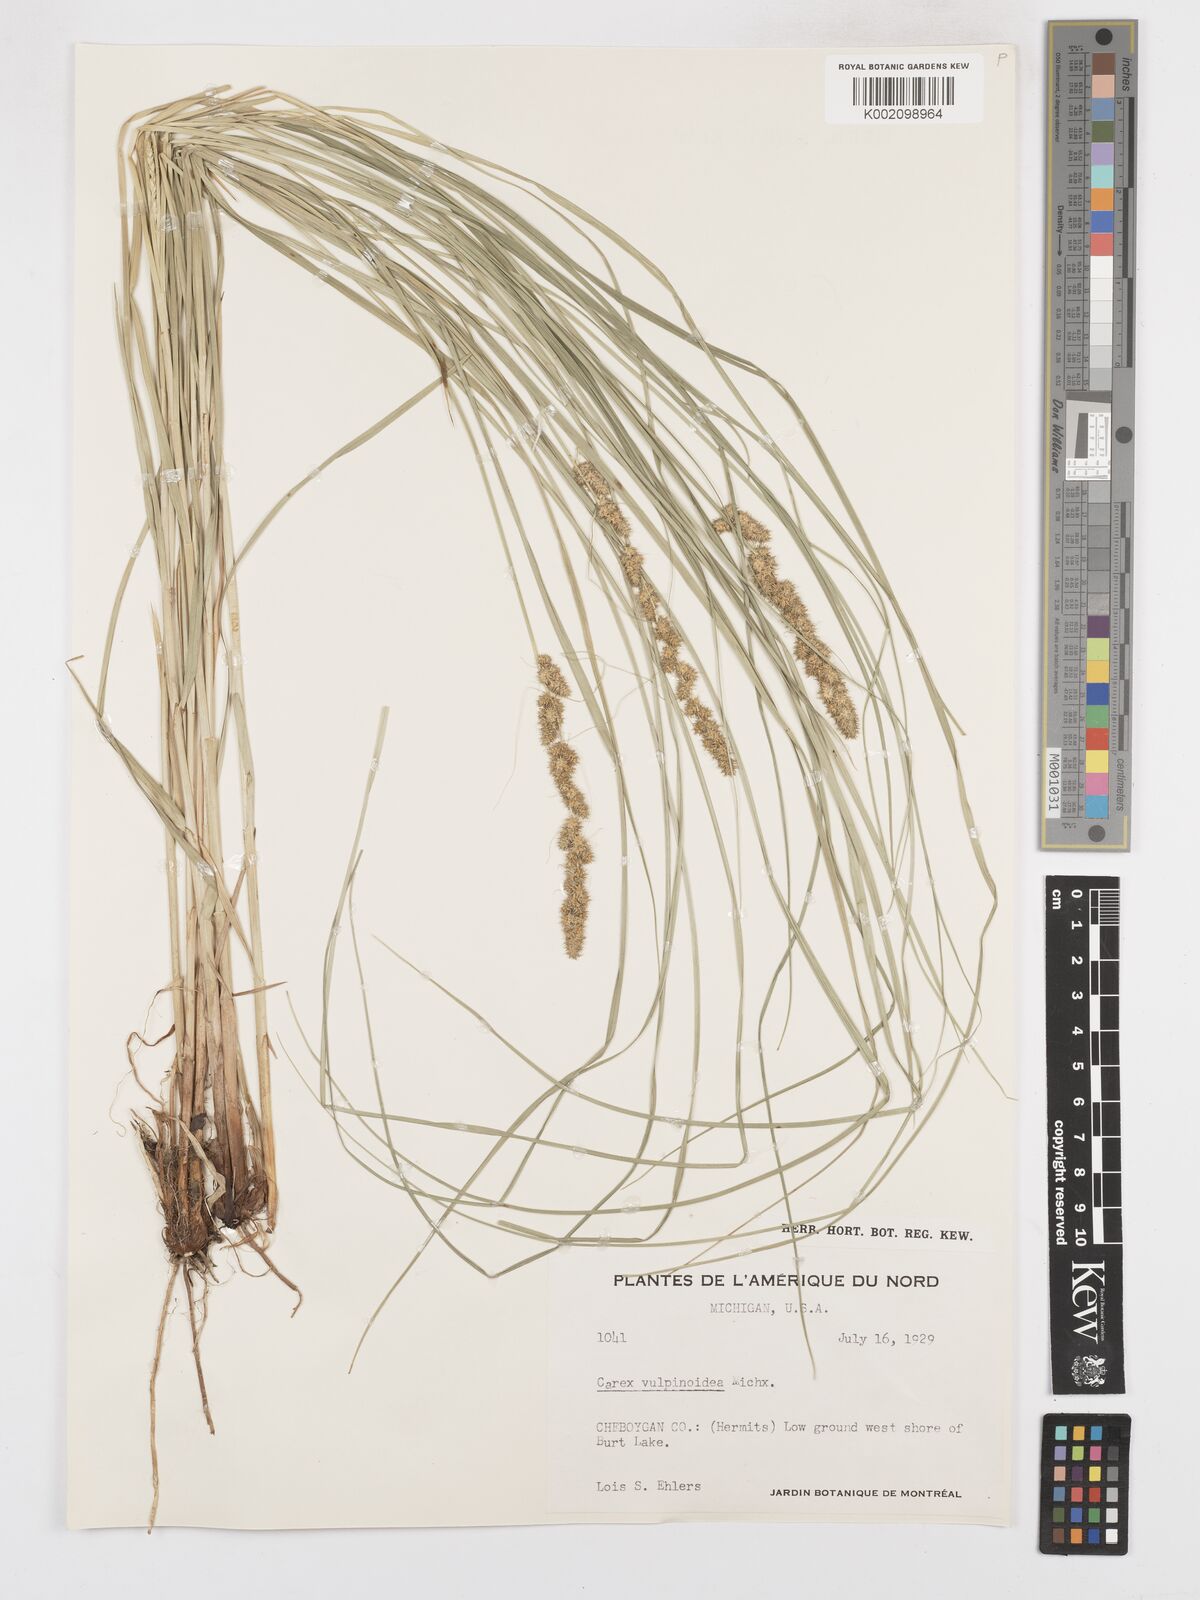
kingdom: Plantae
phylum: Tracheophyta
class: Liliopsida
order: Poales
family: Cyperaceae
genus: Carex
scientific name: Carex vulpinoidea
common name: American fox-sedge
